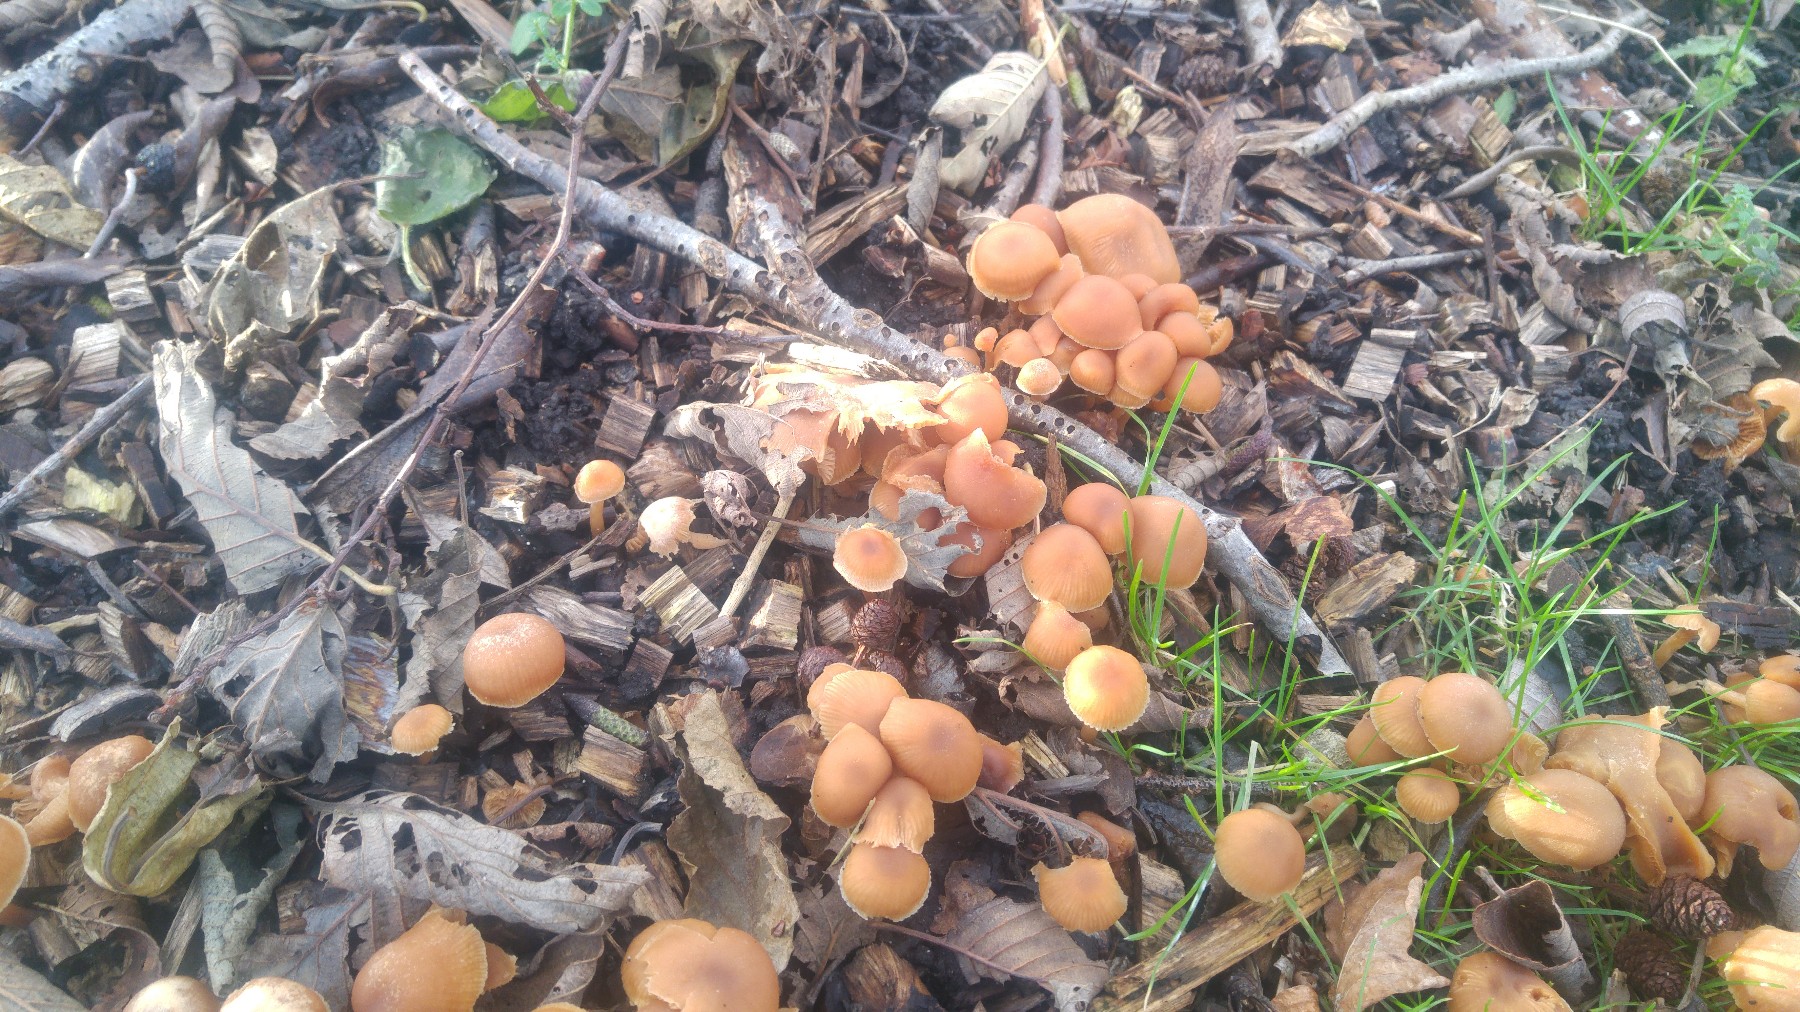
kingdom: Fungi
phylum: Basidiomycota
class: Agaricomycetes
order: Agaricales
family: Tubariaceae
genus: Tubaria
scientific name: Tubaria furfuracea
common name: kliddet fnughat
